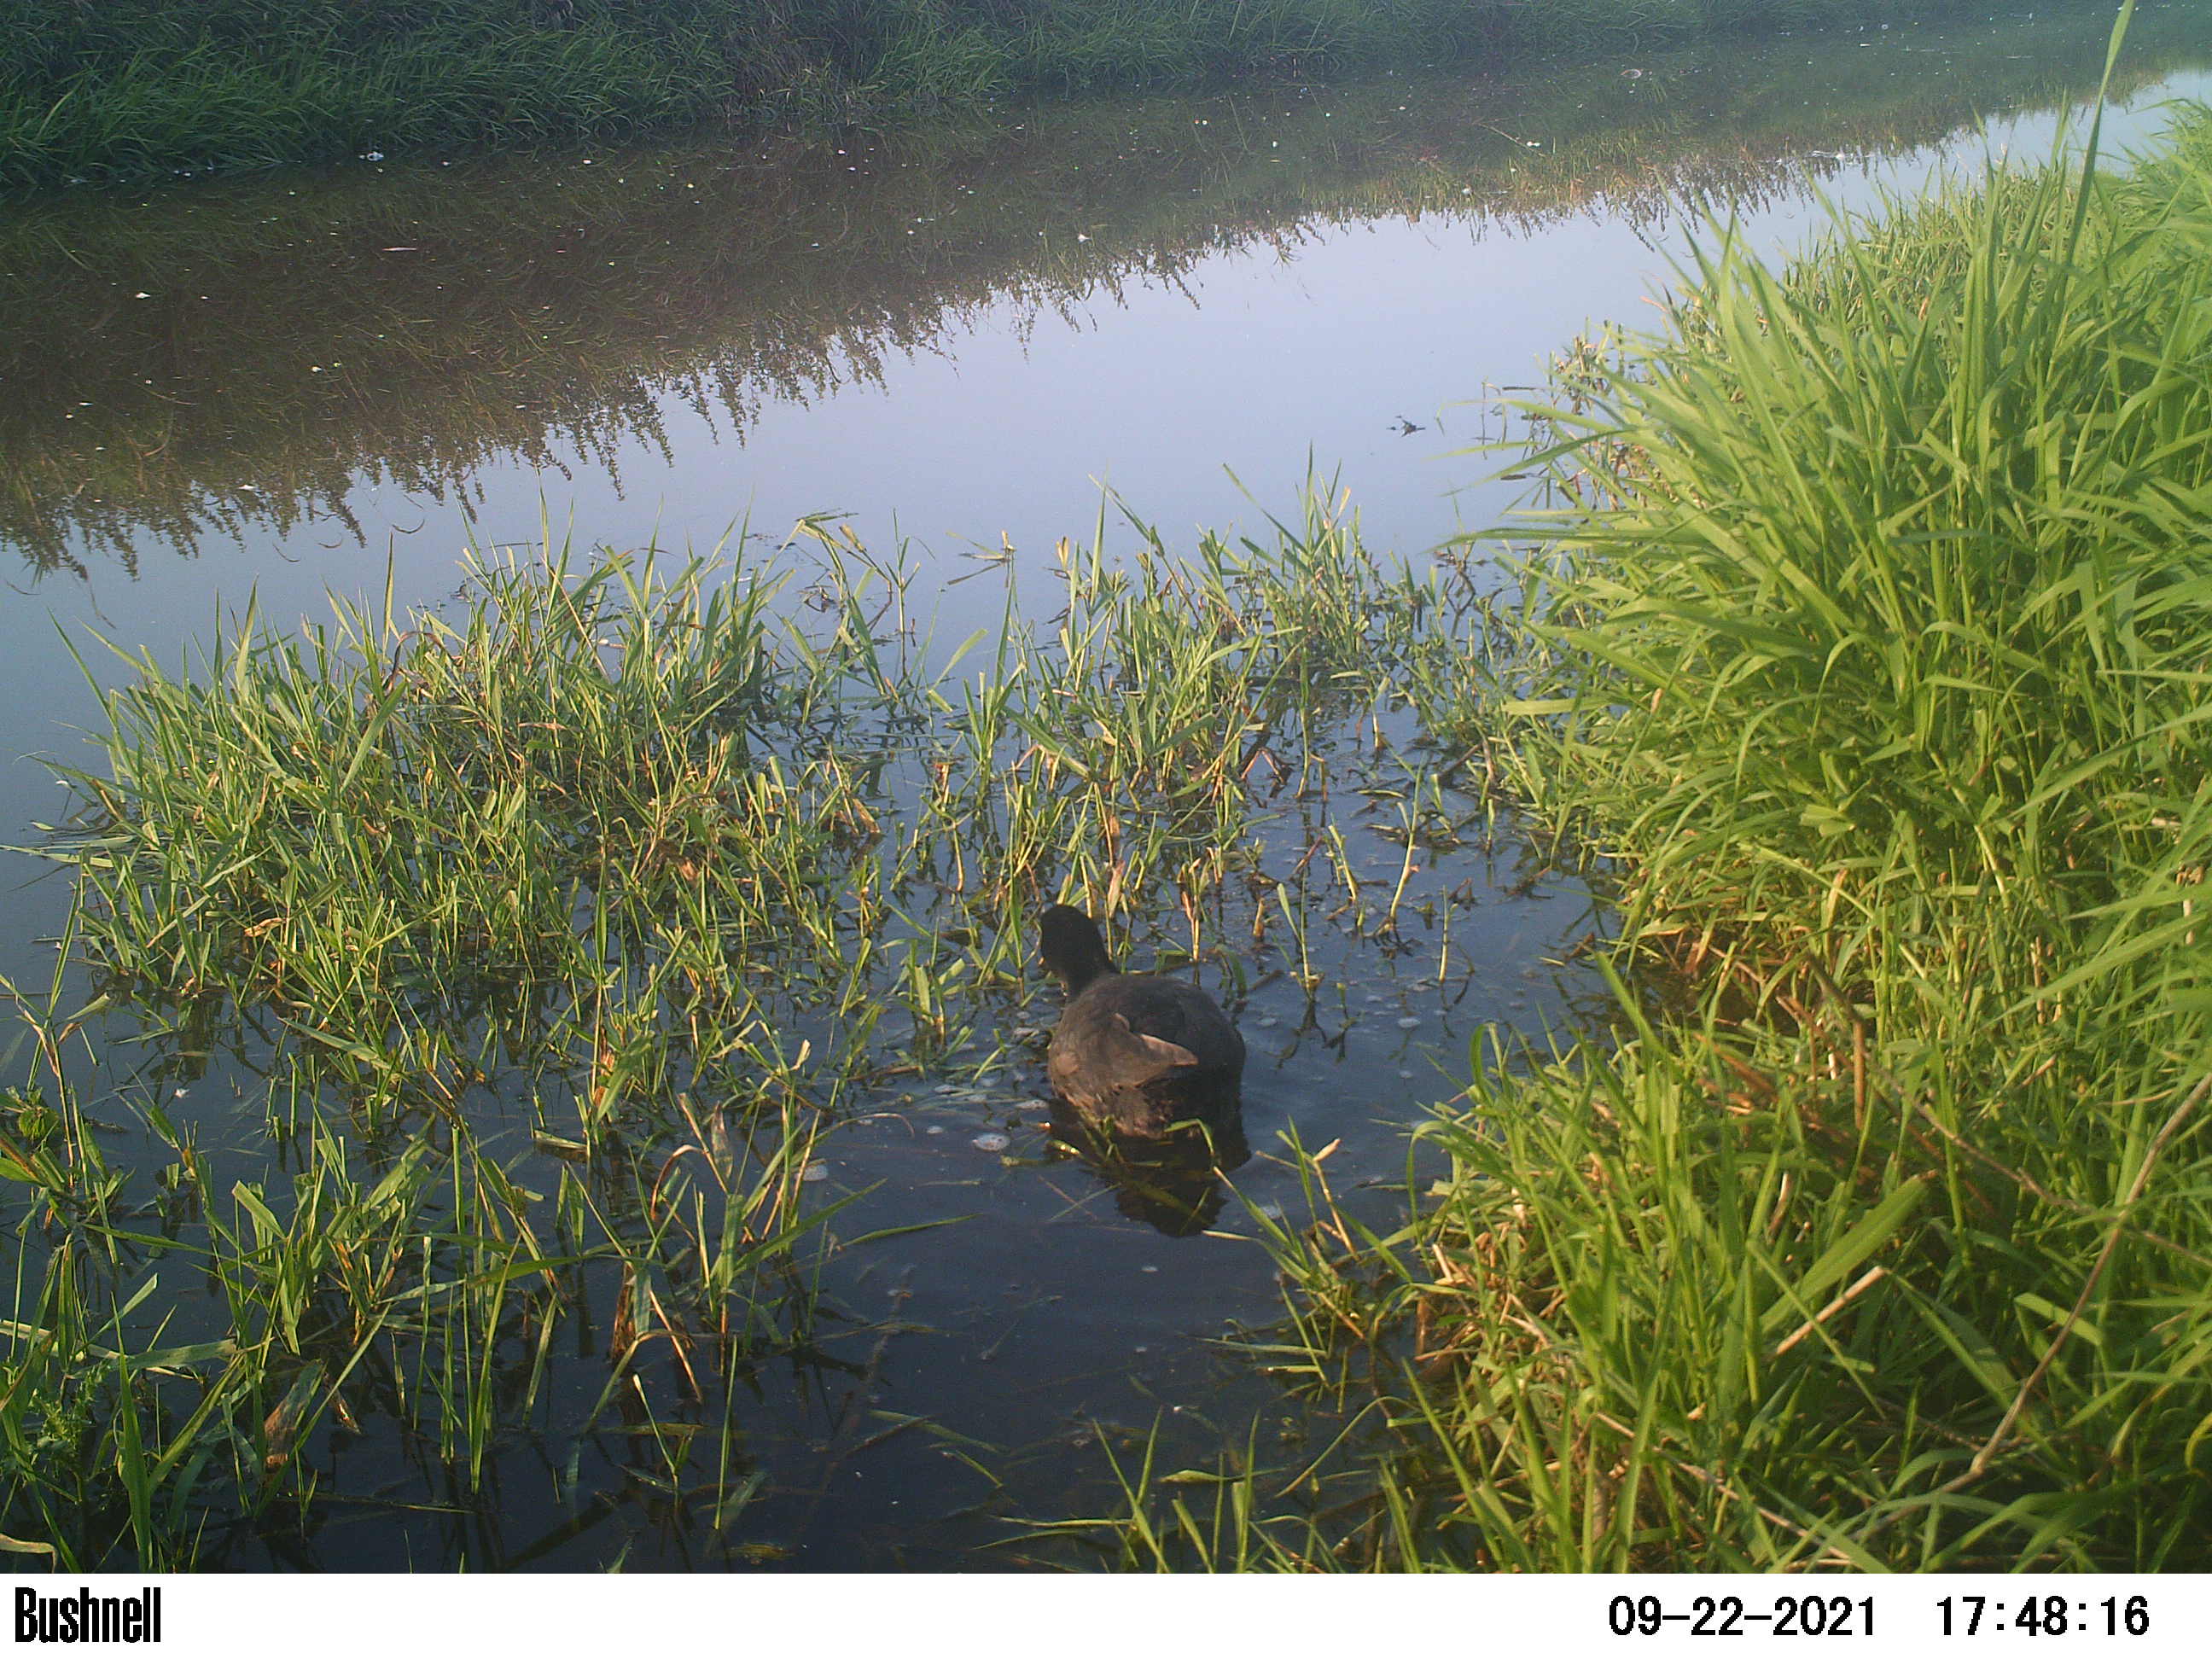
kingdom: Animalia
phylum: Chordata
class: Aves
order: Gruiformes
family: Rallidae
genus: Gallinula
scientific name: Gallinula chloropus
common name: Common moorhen
